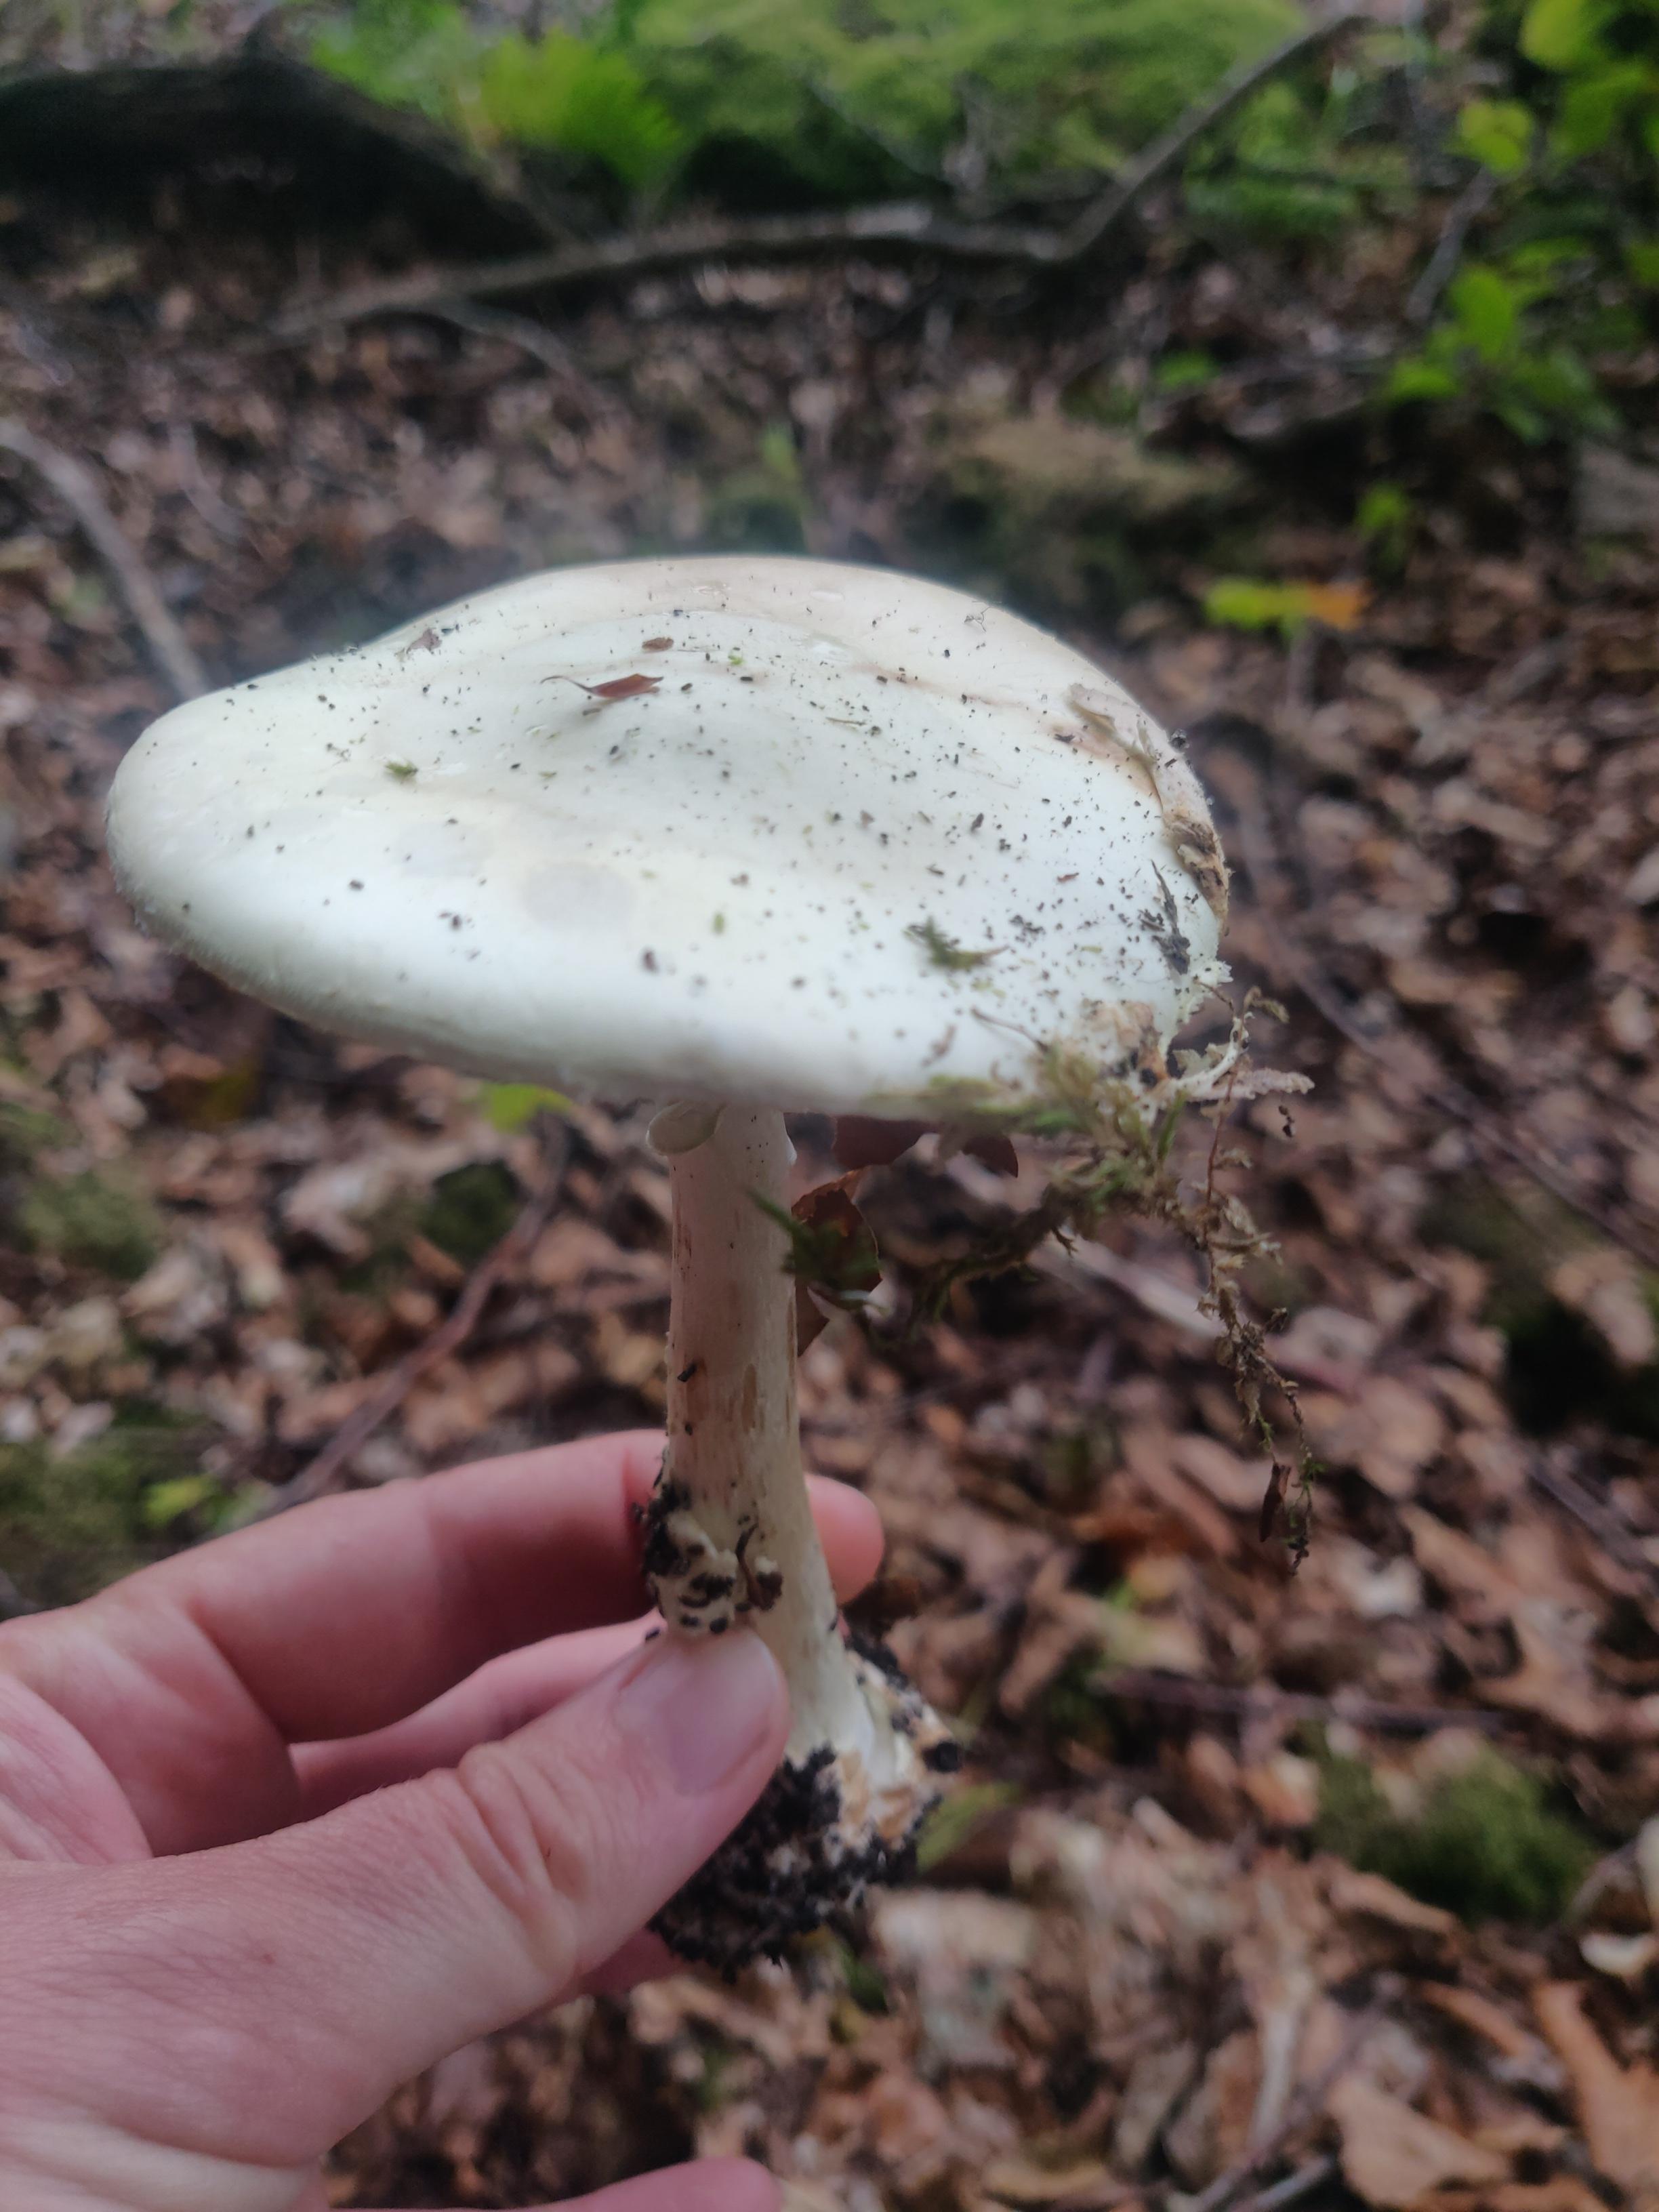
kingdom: Fungi
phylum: Basidiomycota
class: Agaricomycetes
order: Agaricales
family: Amanitaceae
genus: Amanita
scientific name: Amanita phalloides
